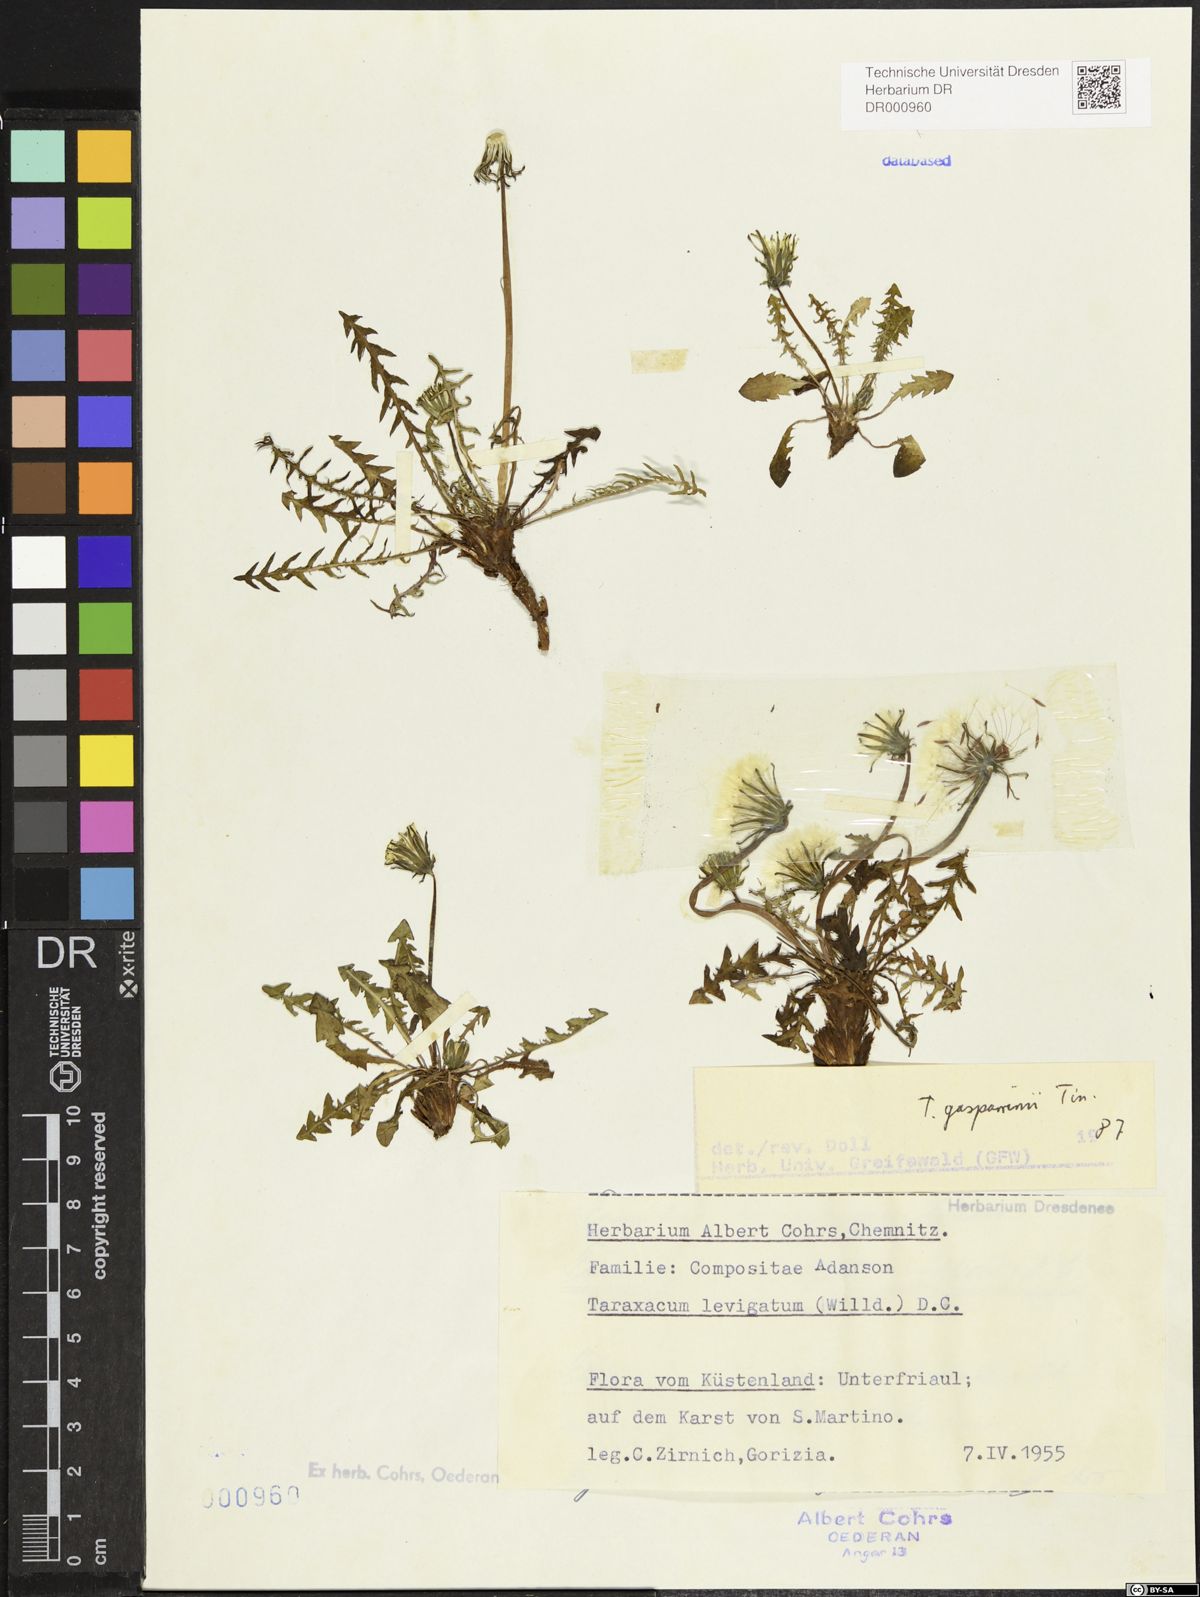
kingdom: Plantae
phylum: Tracheophyta
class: Magnoliopsida
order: Asterales
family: Asteraceae
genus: Taraxacum
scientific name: Taraxacum gasparrinii
